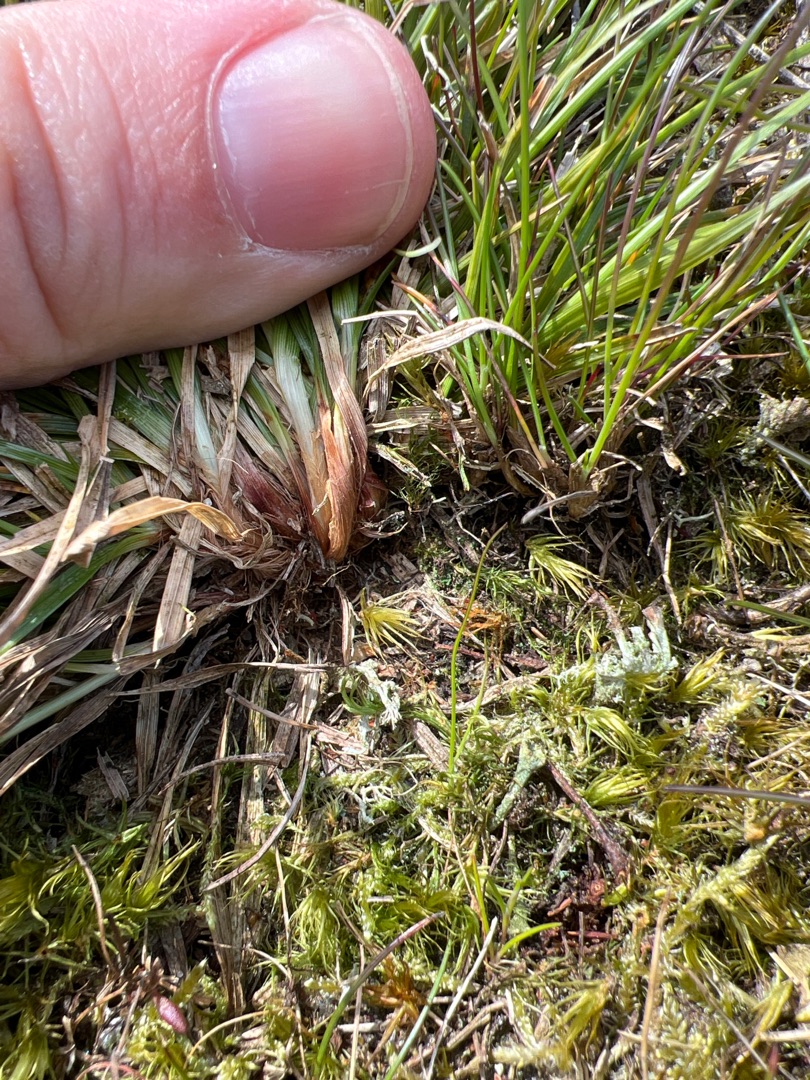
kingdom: Plantae
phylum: Tracheophyta
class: Liliopsida
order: Poales
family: Cyperaceae
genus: Carex
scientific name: Carex pilulifera
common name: Pille-star
